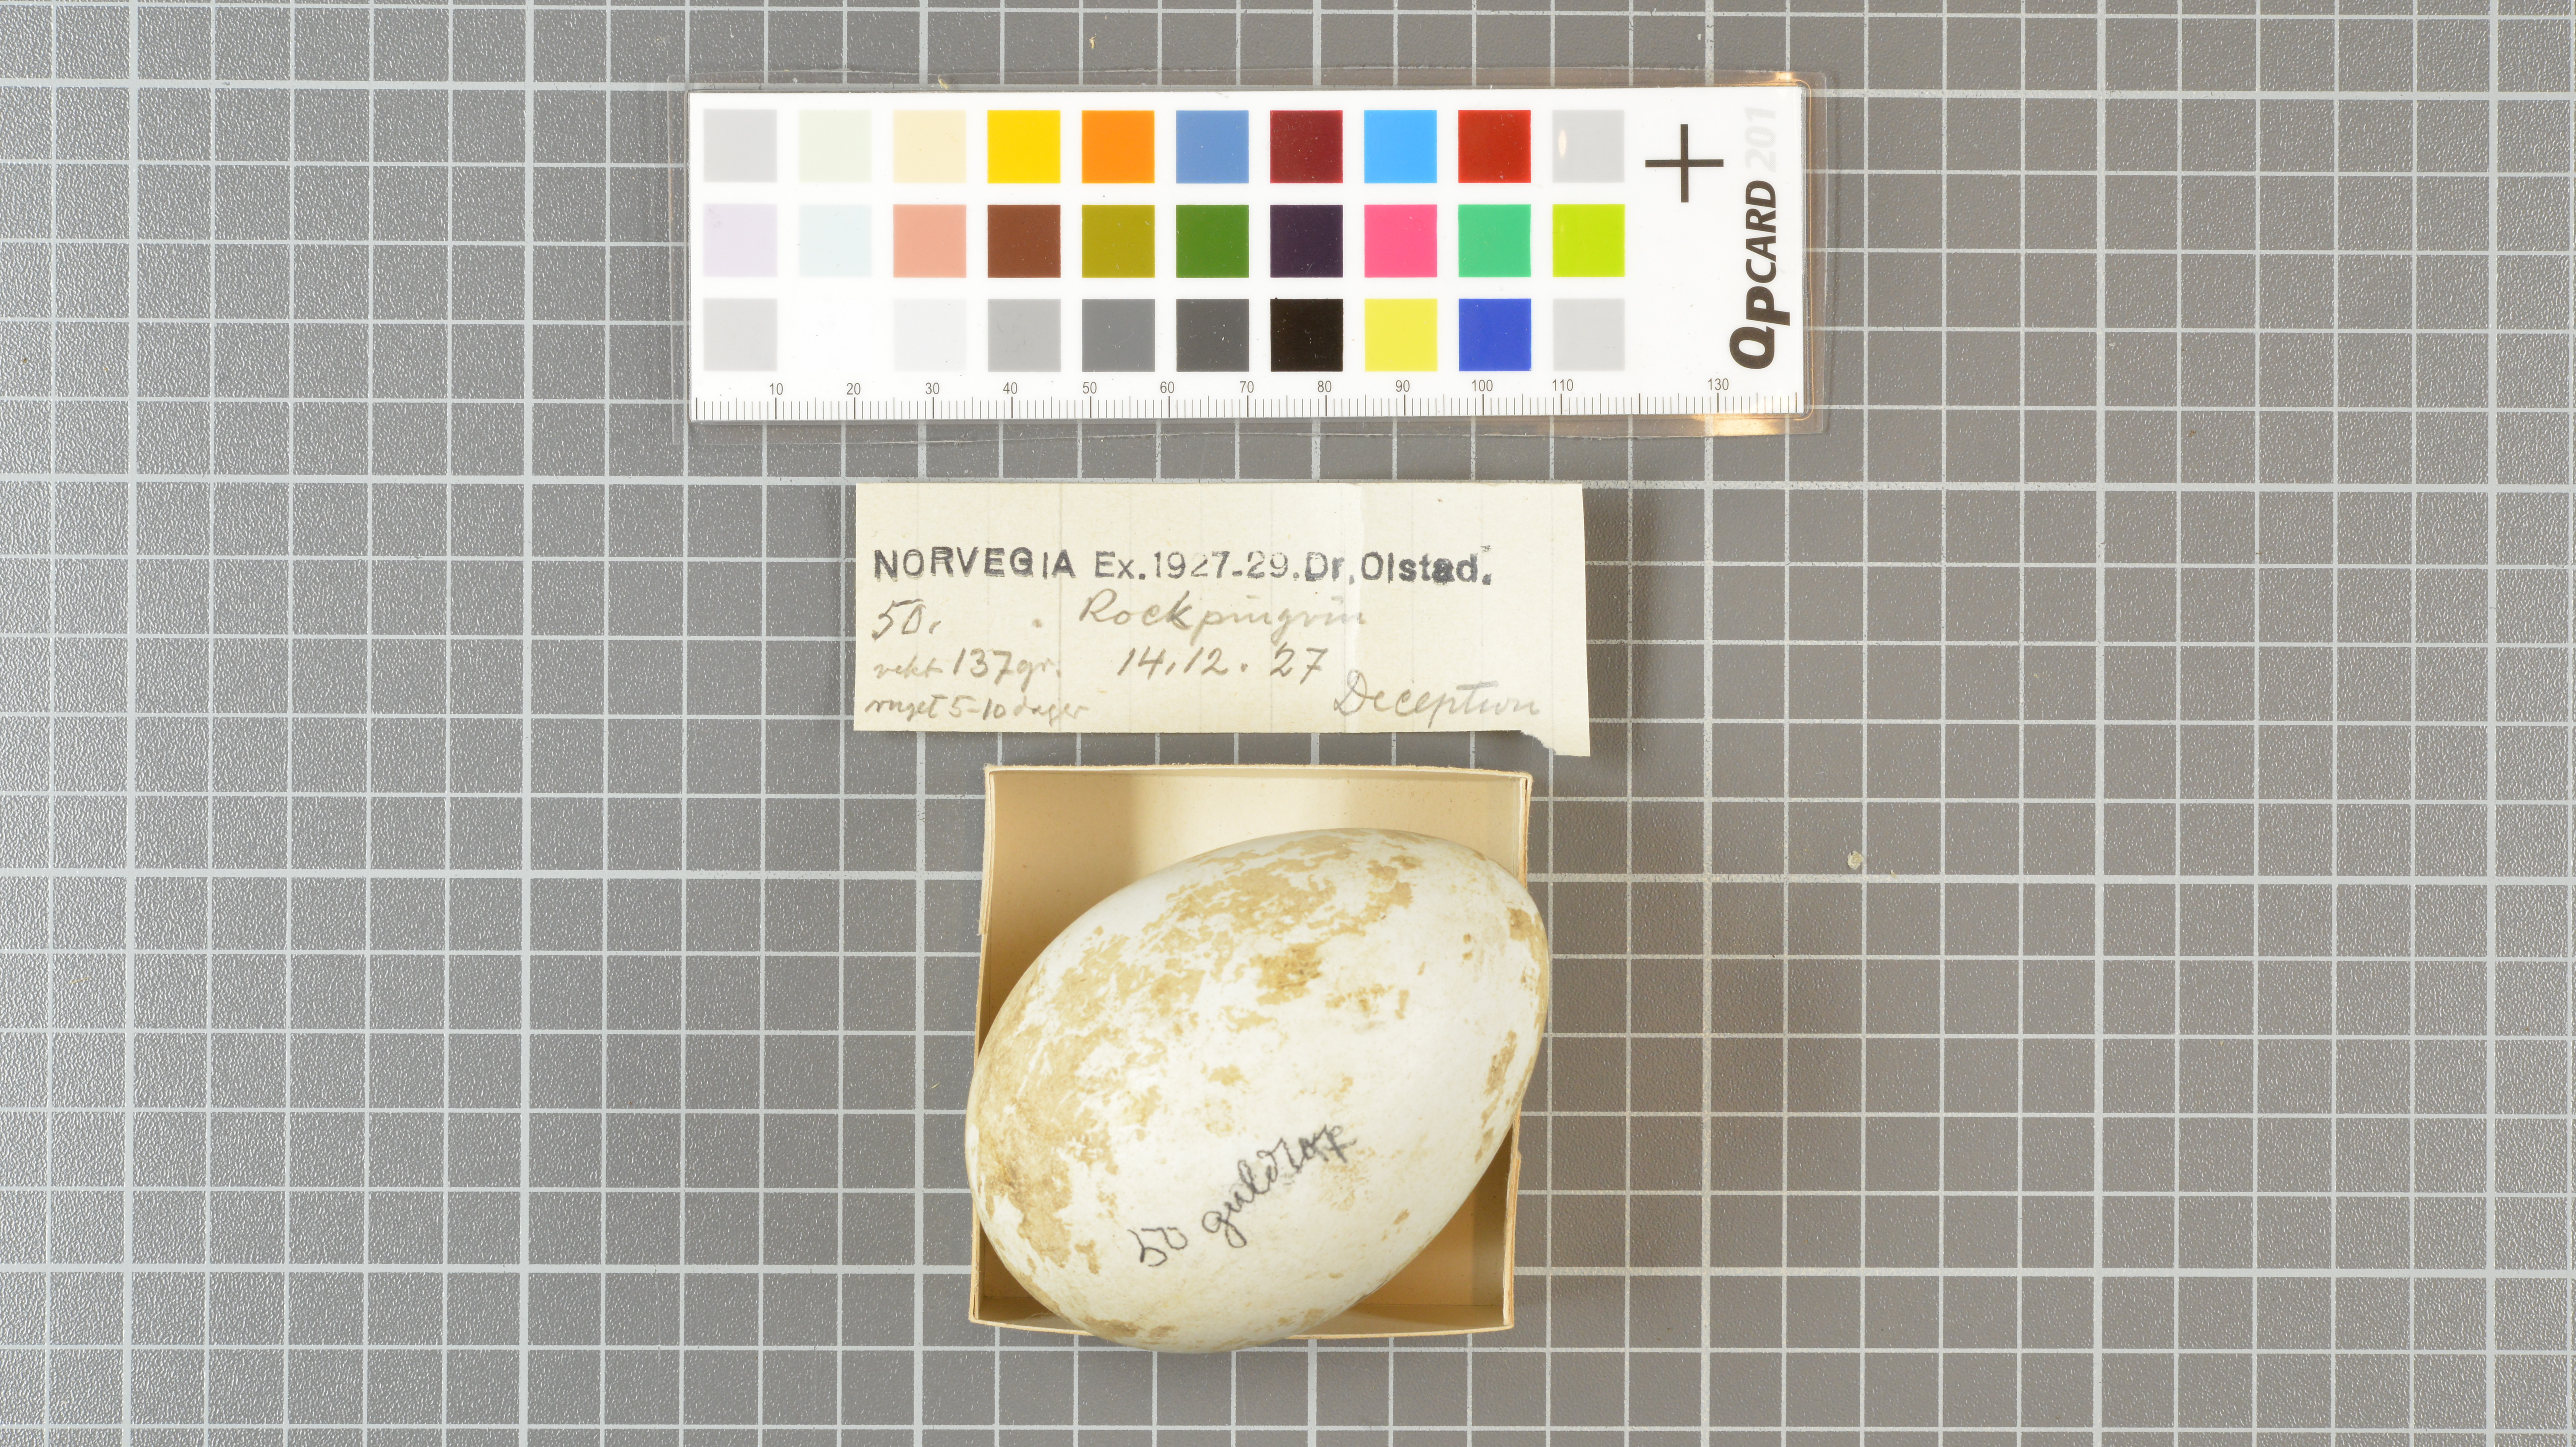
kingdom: Animalia
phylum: Chordata
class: Aves
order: Sphenisciformes
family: Spheniscidae
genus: Eudyptes
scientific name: Eudyptes chrysolophus
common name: Macaroni penguin
